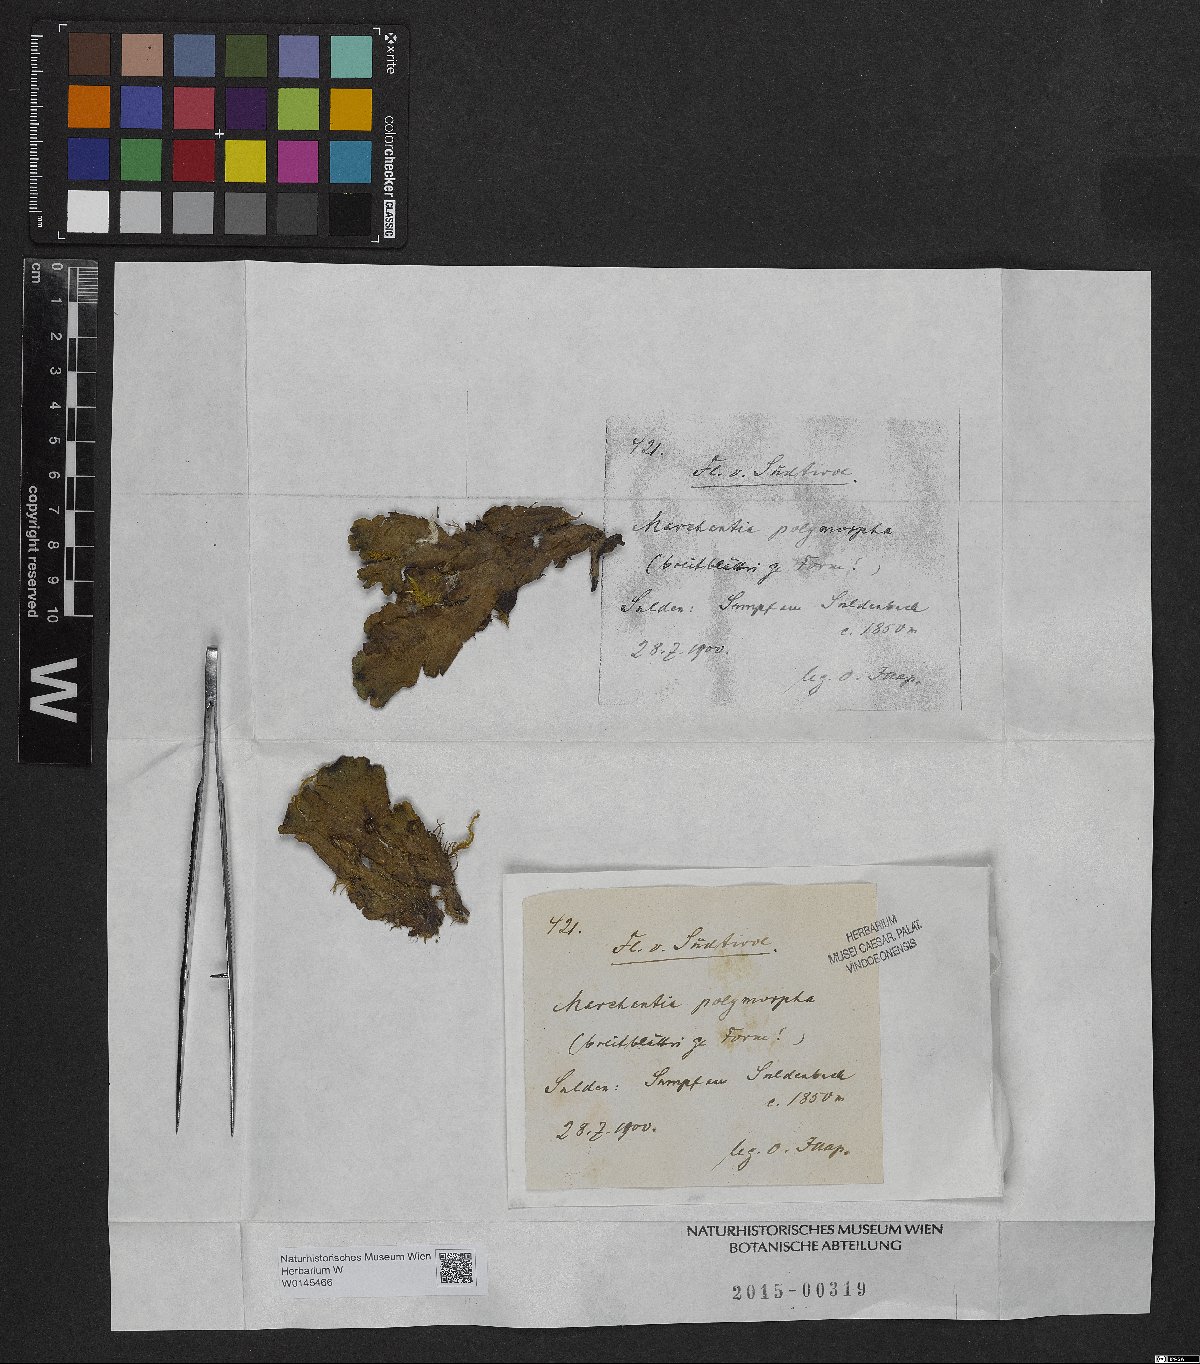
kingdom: Plantae
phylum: Marchantiophyta
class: Marchantiopsida
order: Marchantiales
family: Marchantiaceae
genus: Marchantia
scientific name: Marchantia polymorpha
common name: Common liverwort
